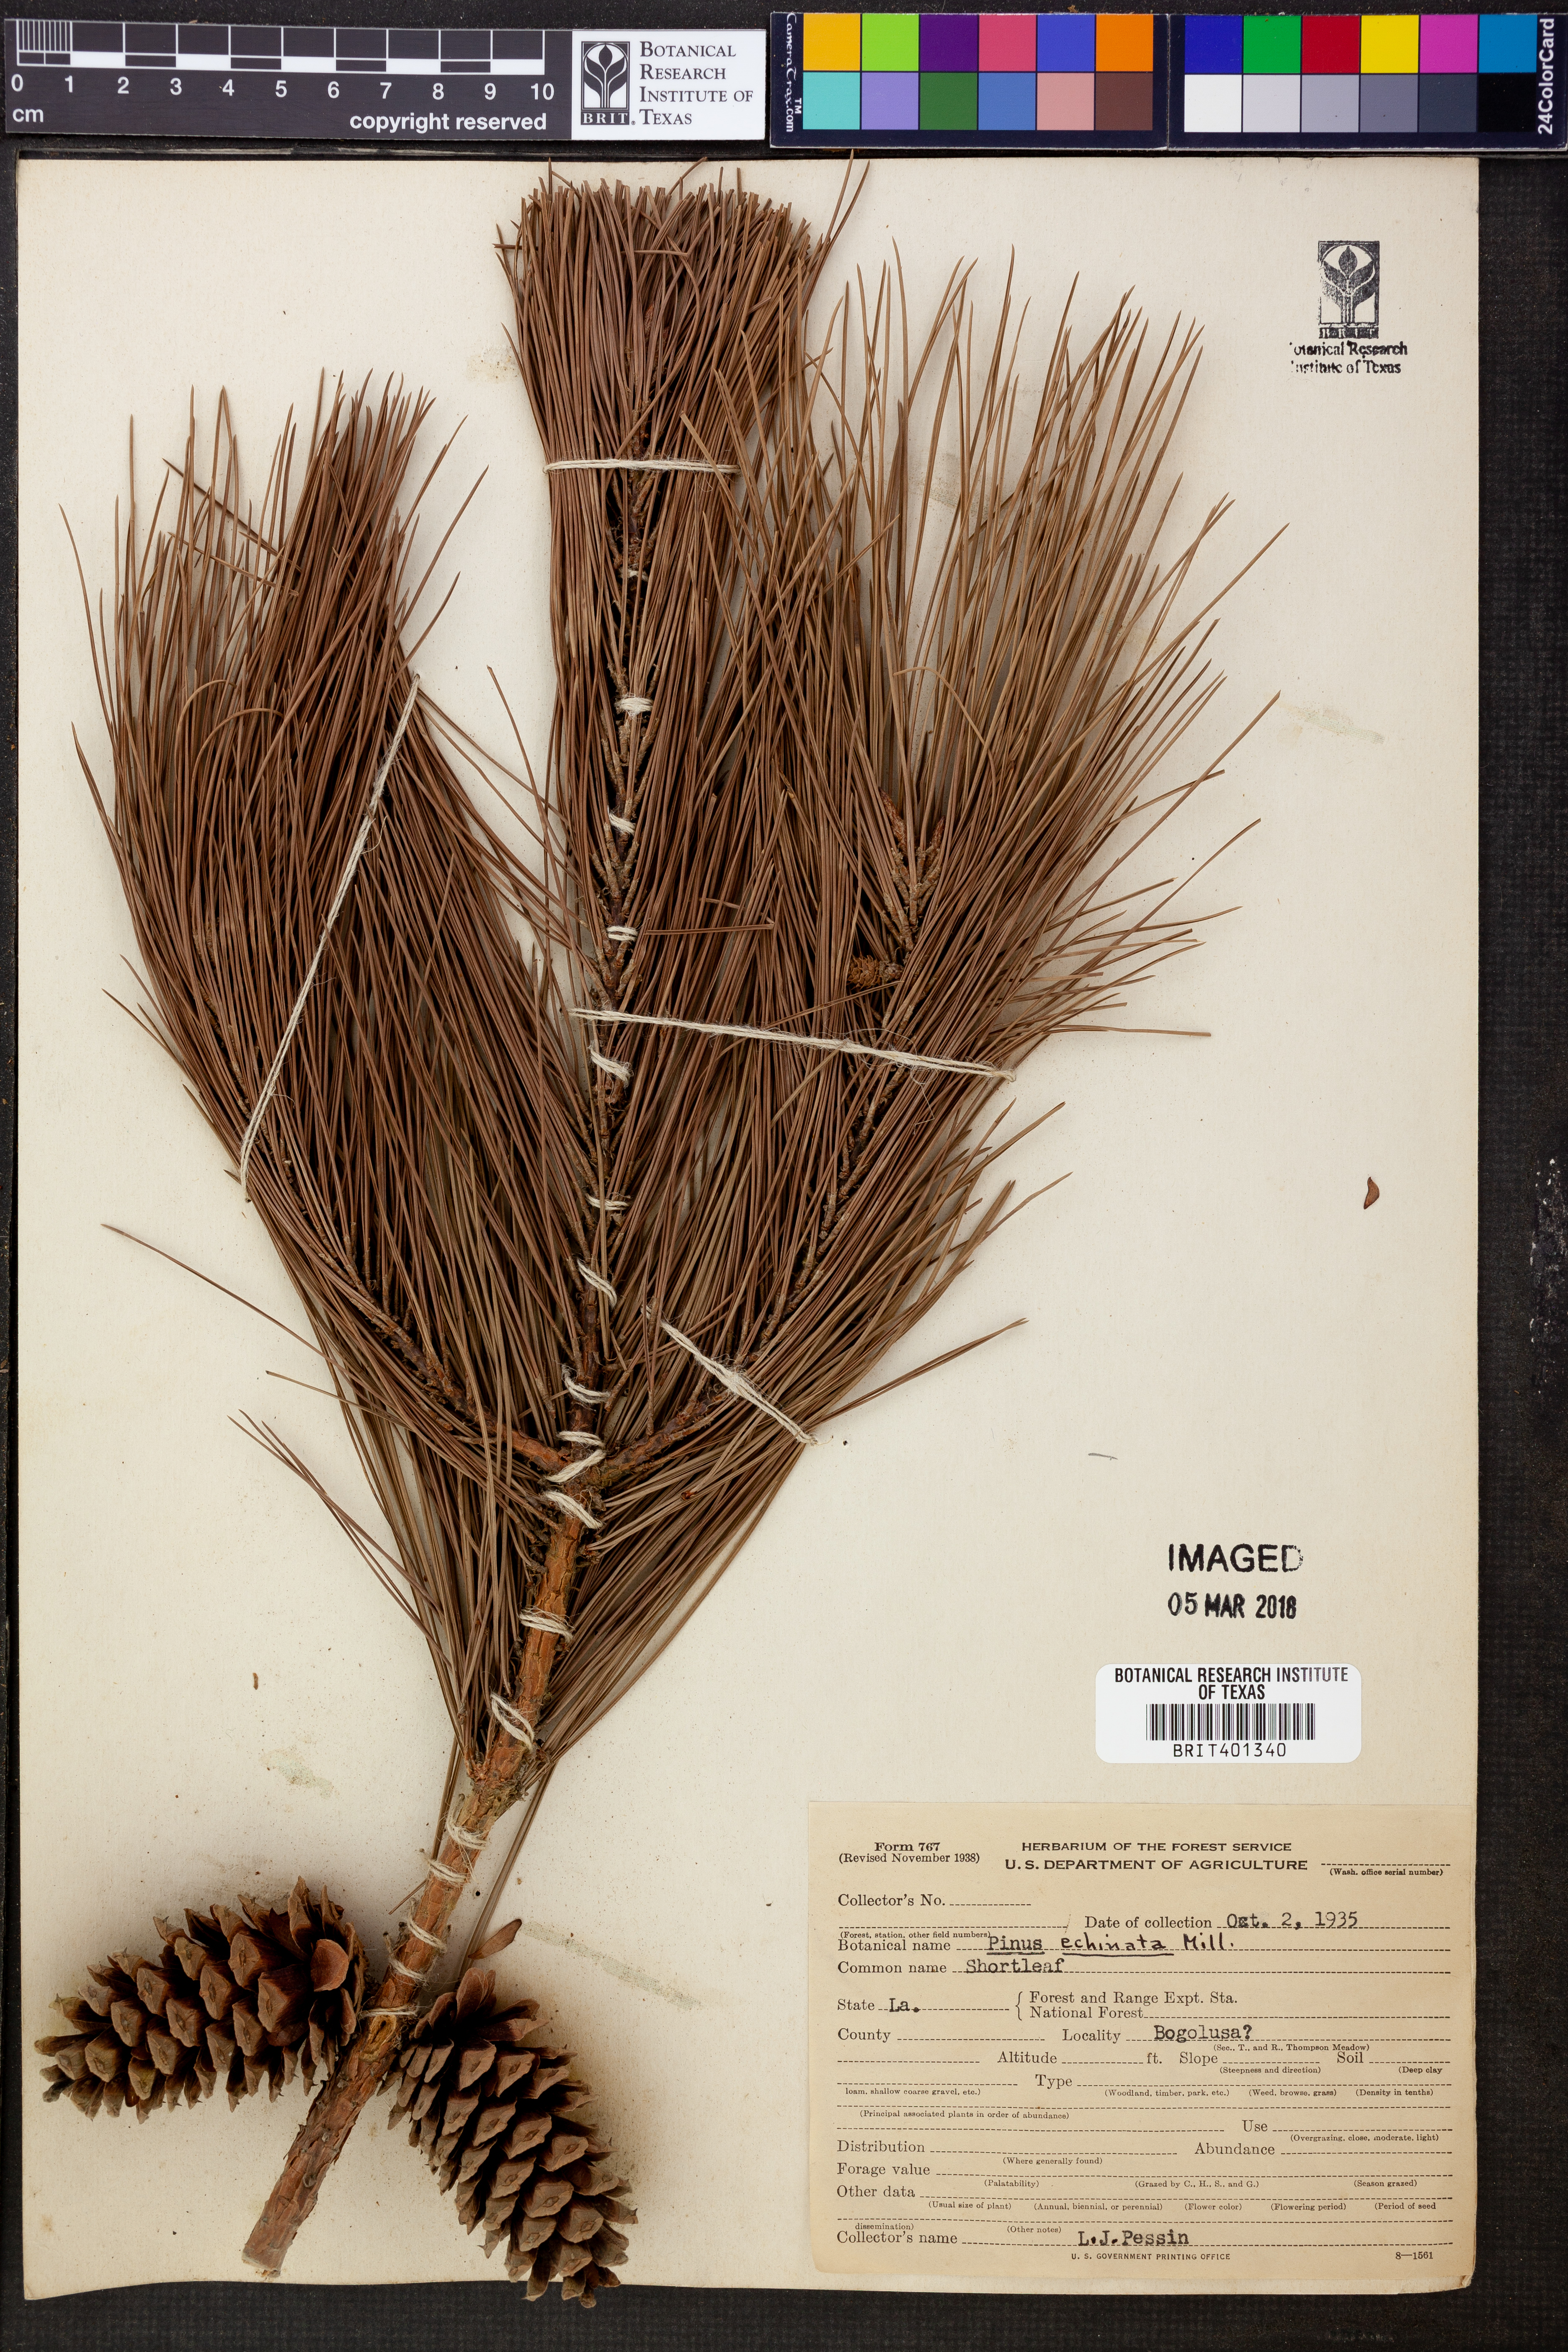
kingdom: Plantae
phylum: Tracheophyta
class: Pinopsida
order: Pinales
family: Pinaceae
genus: Pinus
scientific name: Pinus echinata
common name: Shortleaf pine
